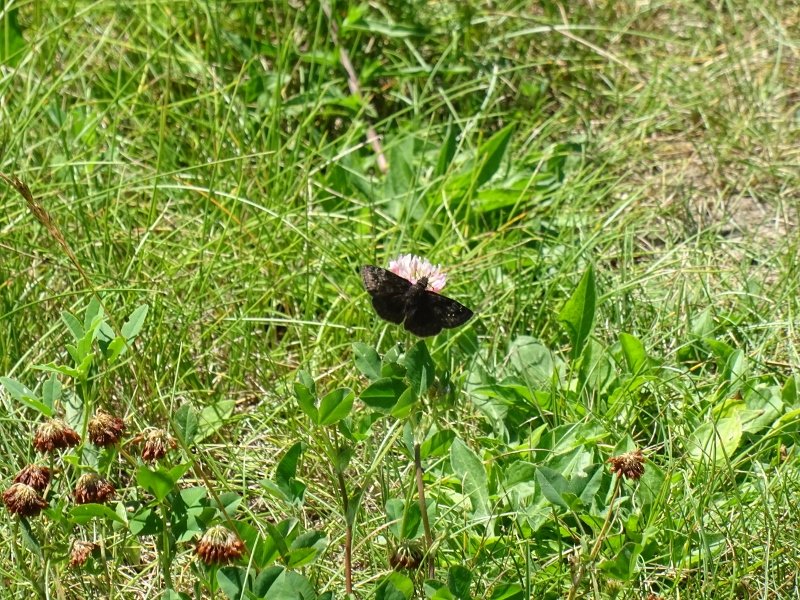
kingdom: Animalia
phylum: Arthropoda
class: Insecta
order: Lepidoptera
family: Hesperiidae
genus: Gesta
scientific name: Gesta
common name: Wild Indigo Duskywing
